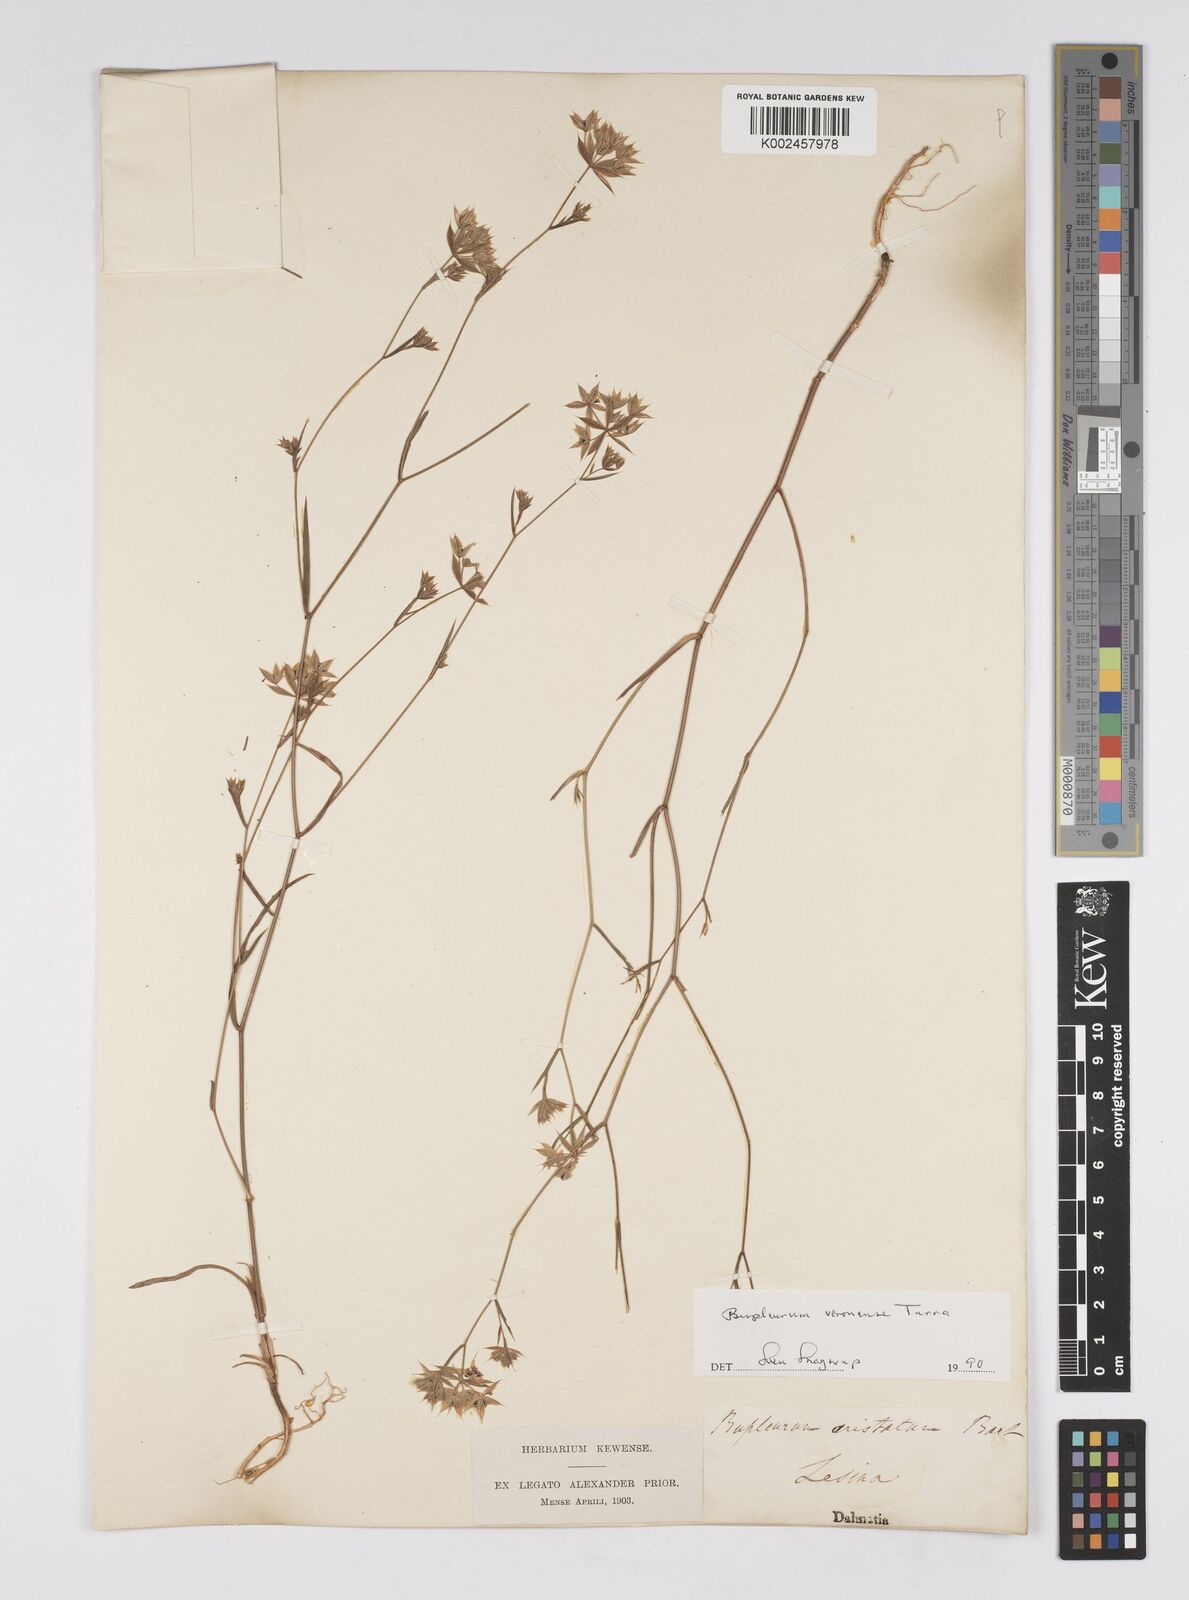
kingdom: Plantae
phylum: Tracheophyta
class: Magnoliopsida
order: Apiales
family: Apiaceae
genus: Bupleurum
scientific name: Bupleurum glumaceum
